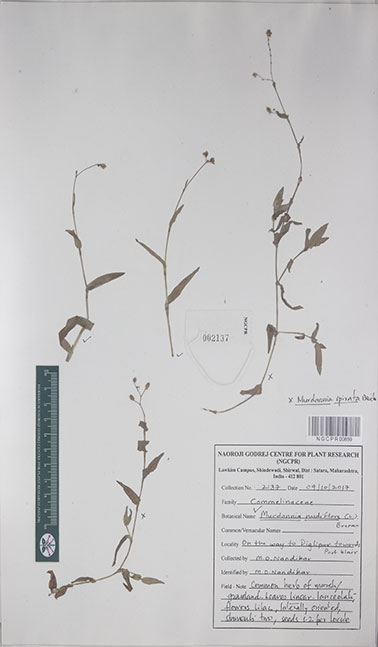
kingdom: Plantae
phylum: Tracheophyta
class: Liliopsida
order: Commelinales
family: Commelinaceae
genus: Murdannia
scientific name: Murdannia nudiflora
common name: Nakedstem dewflower
